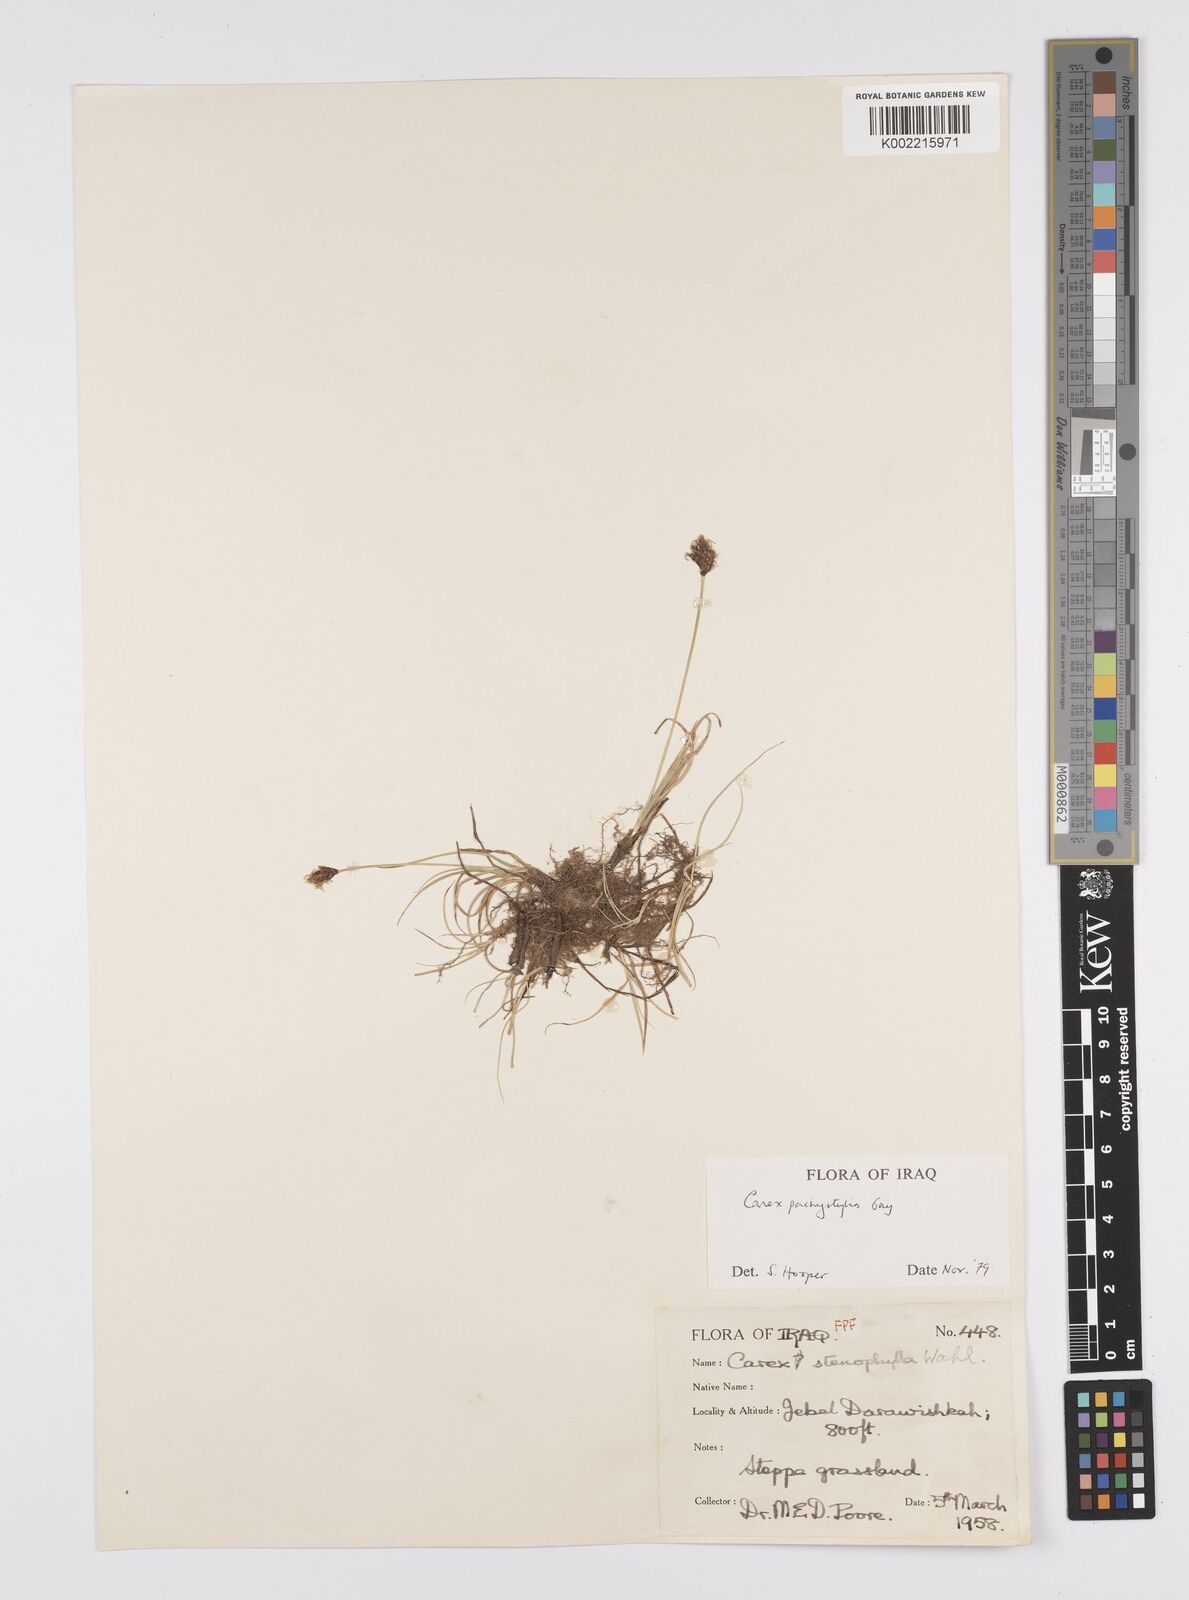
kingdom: Plantae
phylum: Tracheophyta
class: Liliopsida
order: Poales
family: Cyperaceae
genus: Carex
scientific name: Carex pachystylis
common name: Thick-stem sedge
